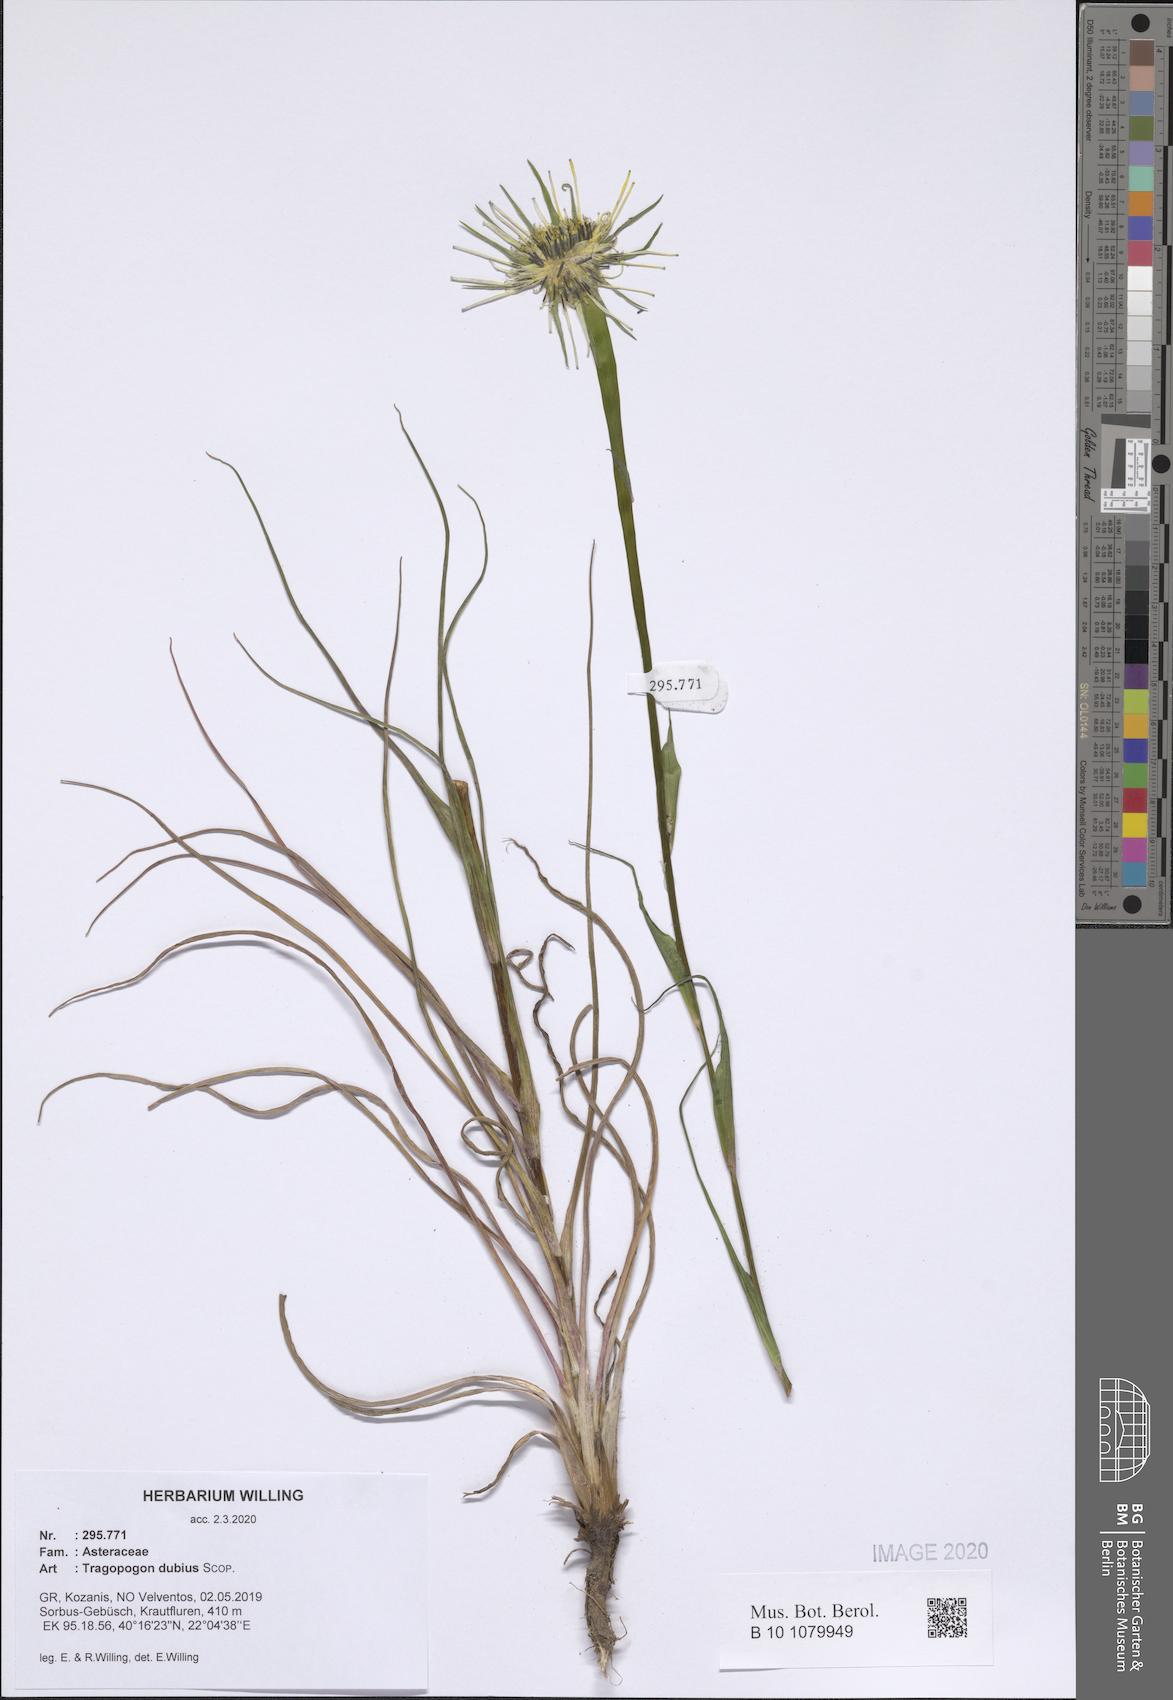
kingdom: Plantae
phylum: Tracheophyta
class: Magnoliopsida
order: Asterales
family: Asteraceae
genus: Tragopogon
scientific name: Tragopogon dubius
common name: Yellow salsify
